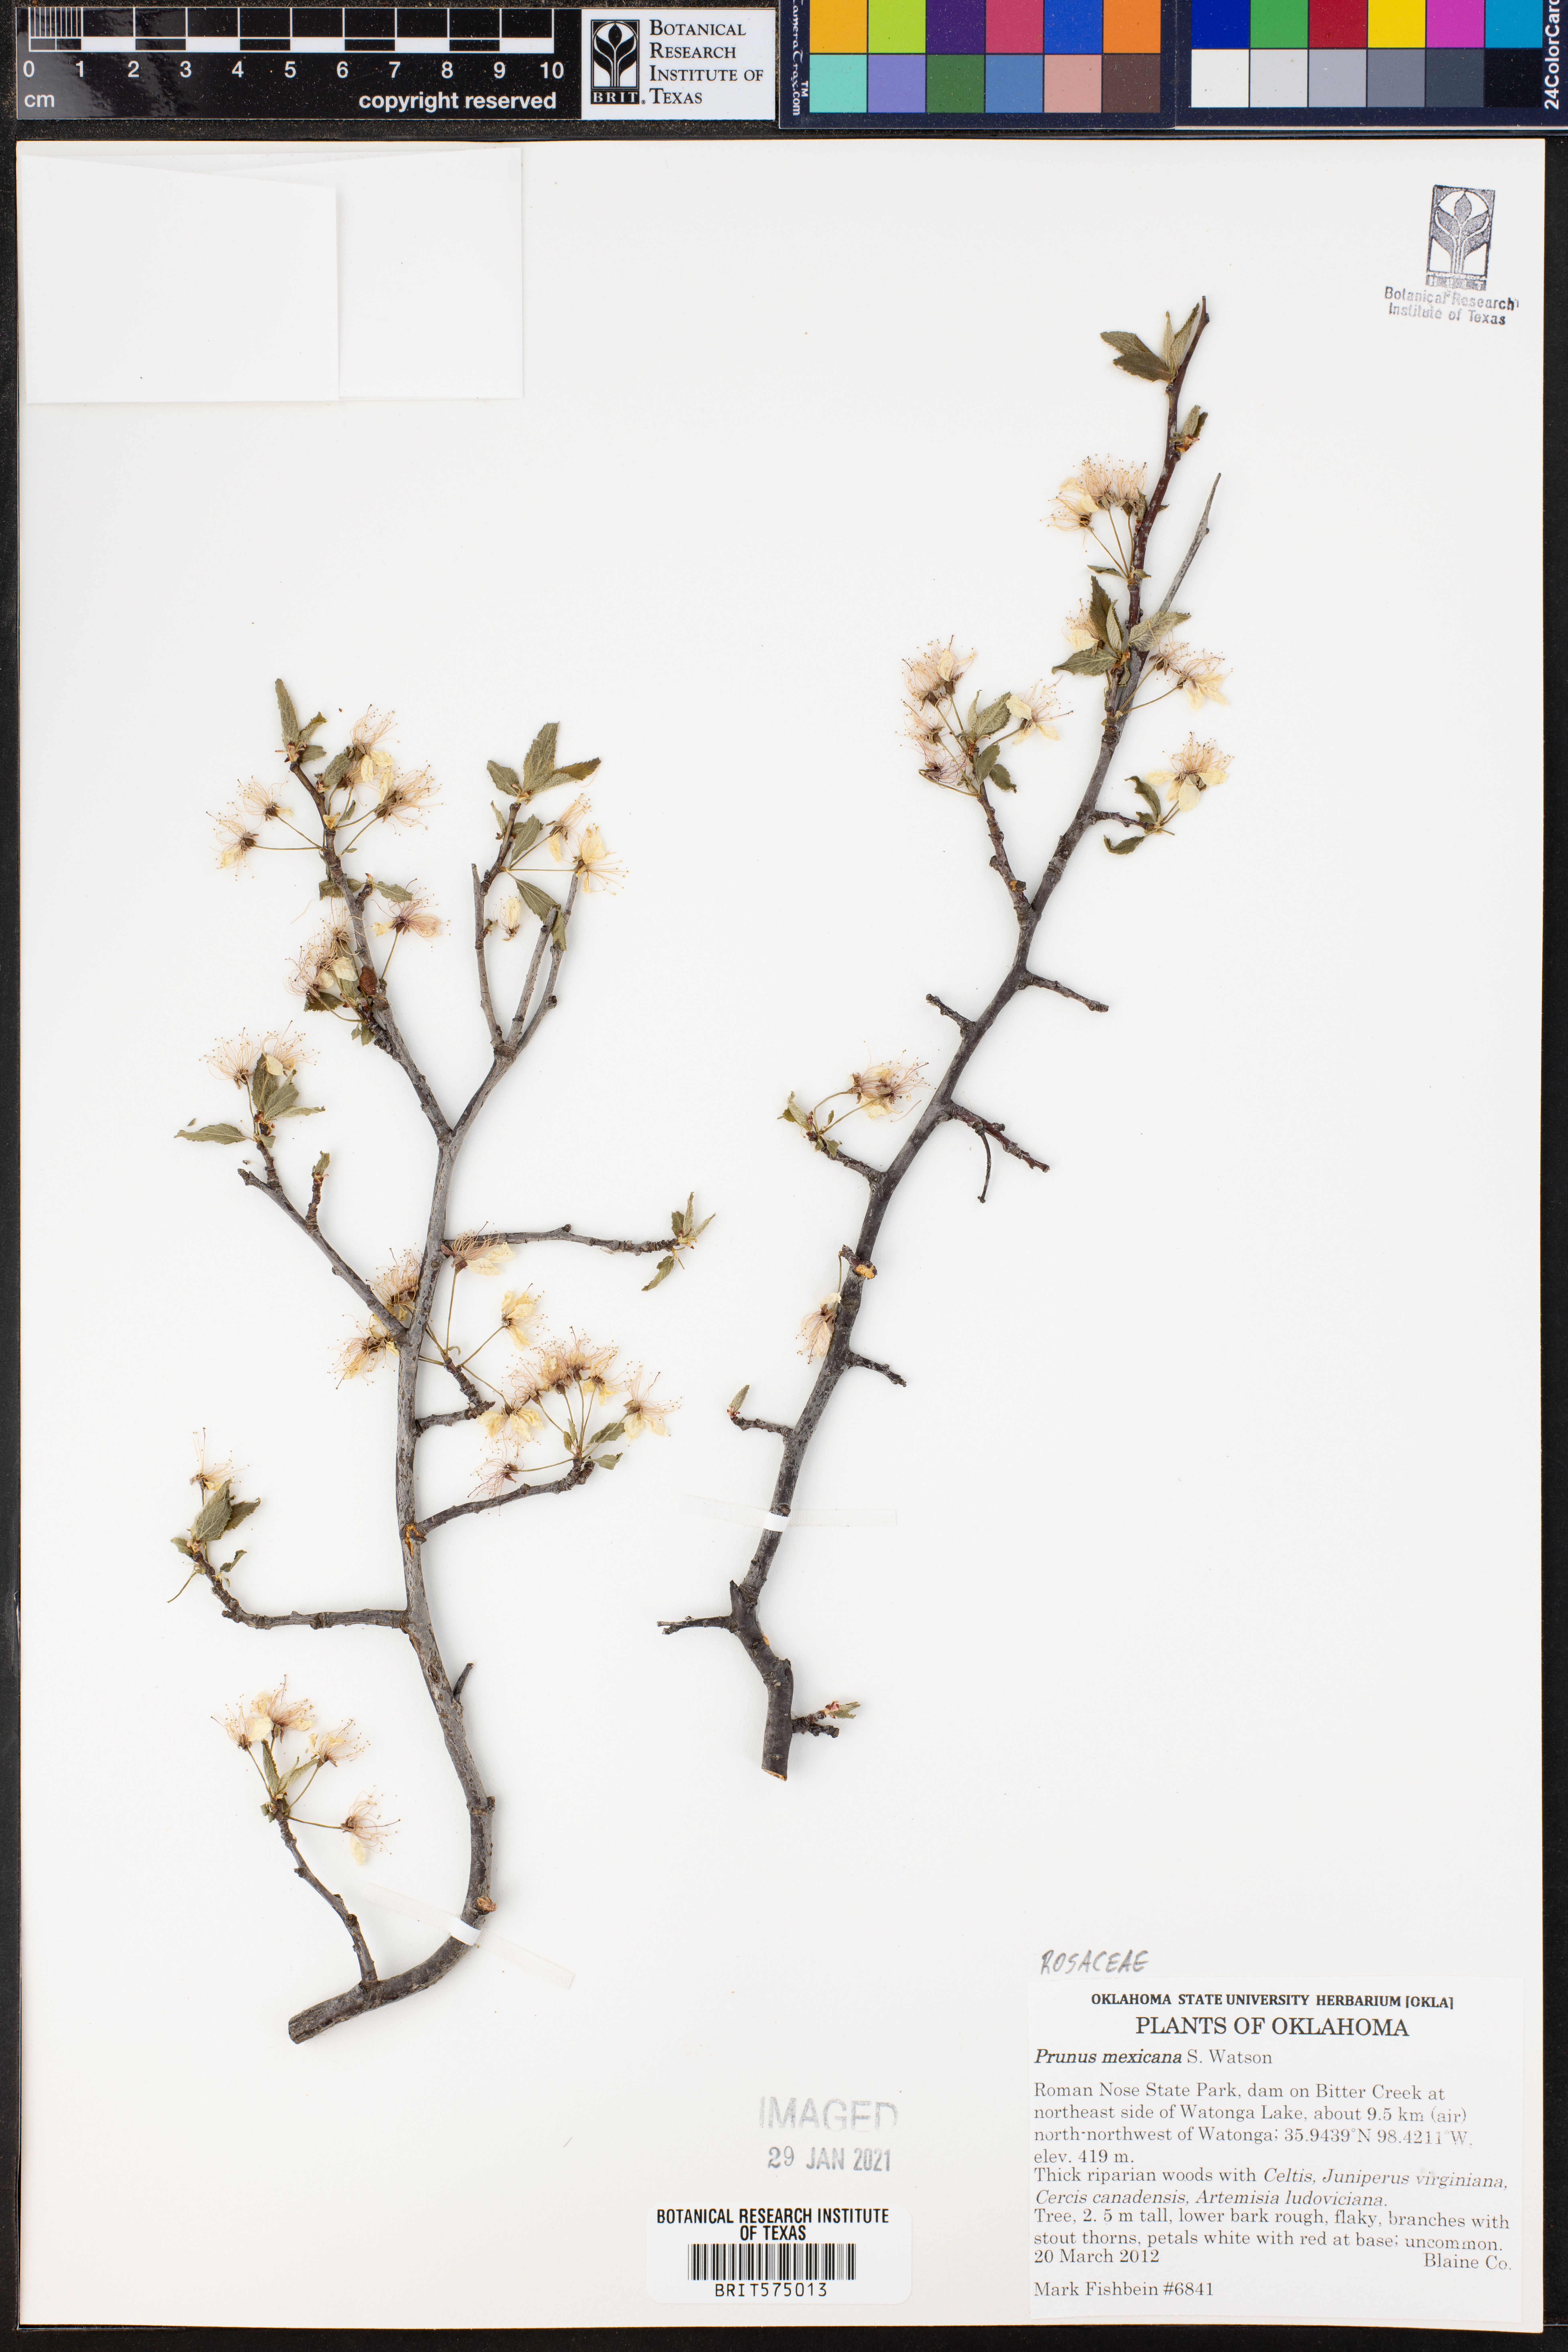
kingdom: Plantae
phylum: Tracheophyta
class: Magnoliopsida
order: Rosales
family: Rosaceae
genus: Prunus
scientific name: Prunus mexicana
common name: Mexican plum
